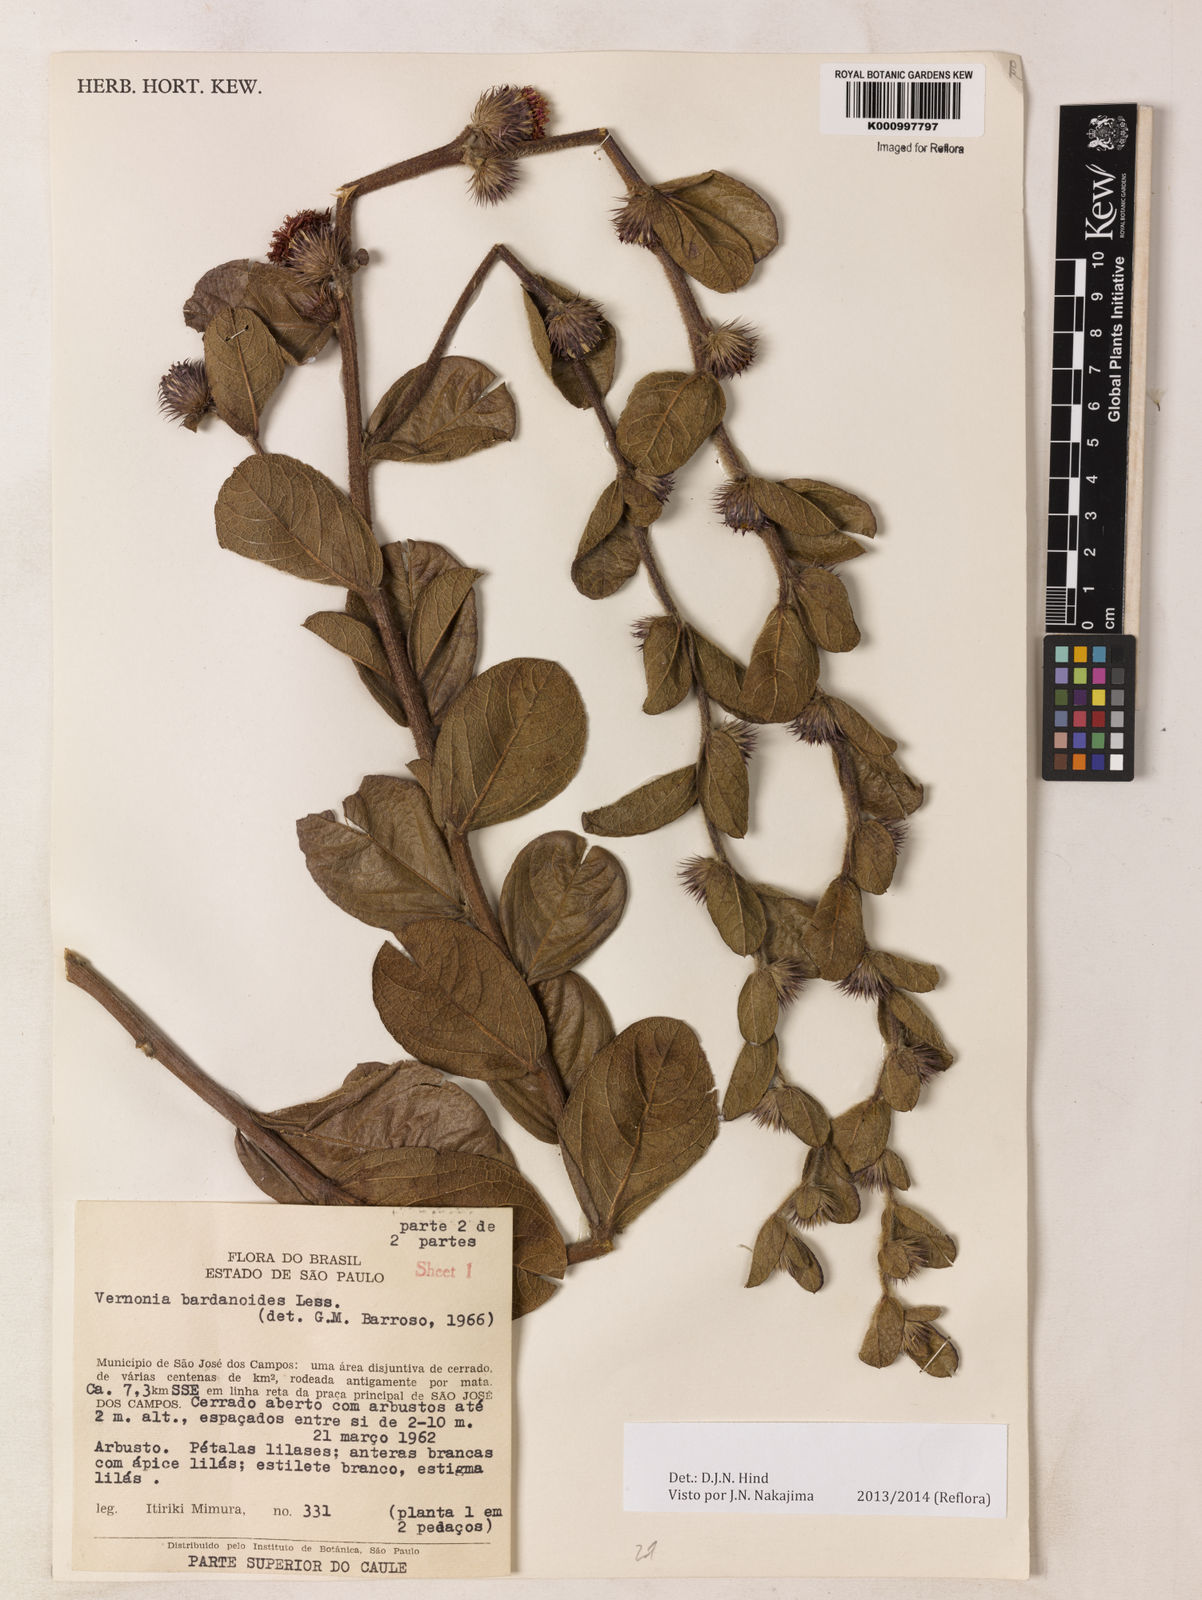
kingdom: Plantae
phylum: Tracheophyta
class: Magnoliopsida
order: Asterales
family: Asteraceae
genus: Lessingianthus
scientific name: Lessingianthus bardanioides
